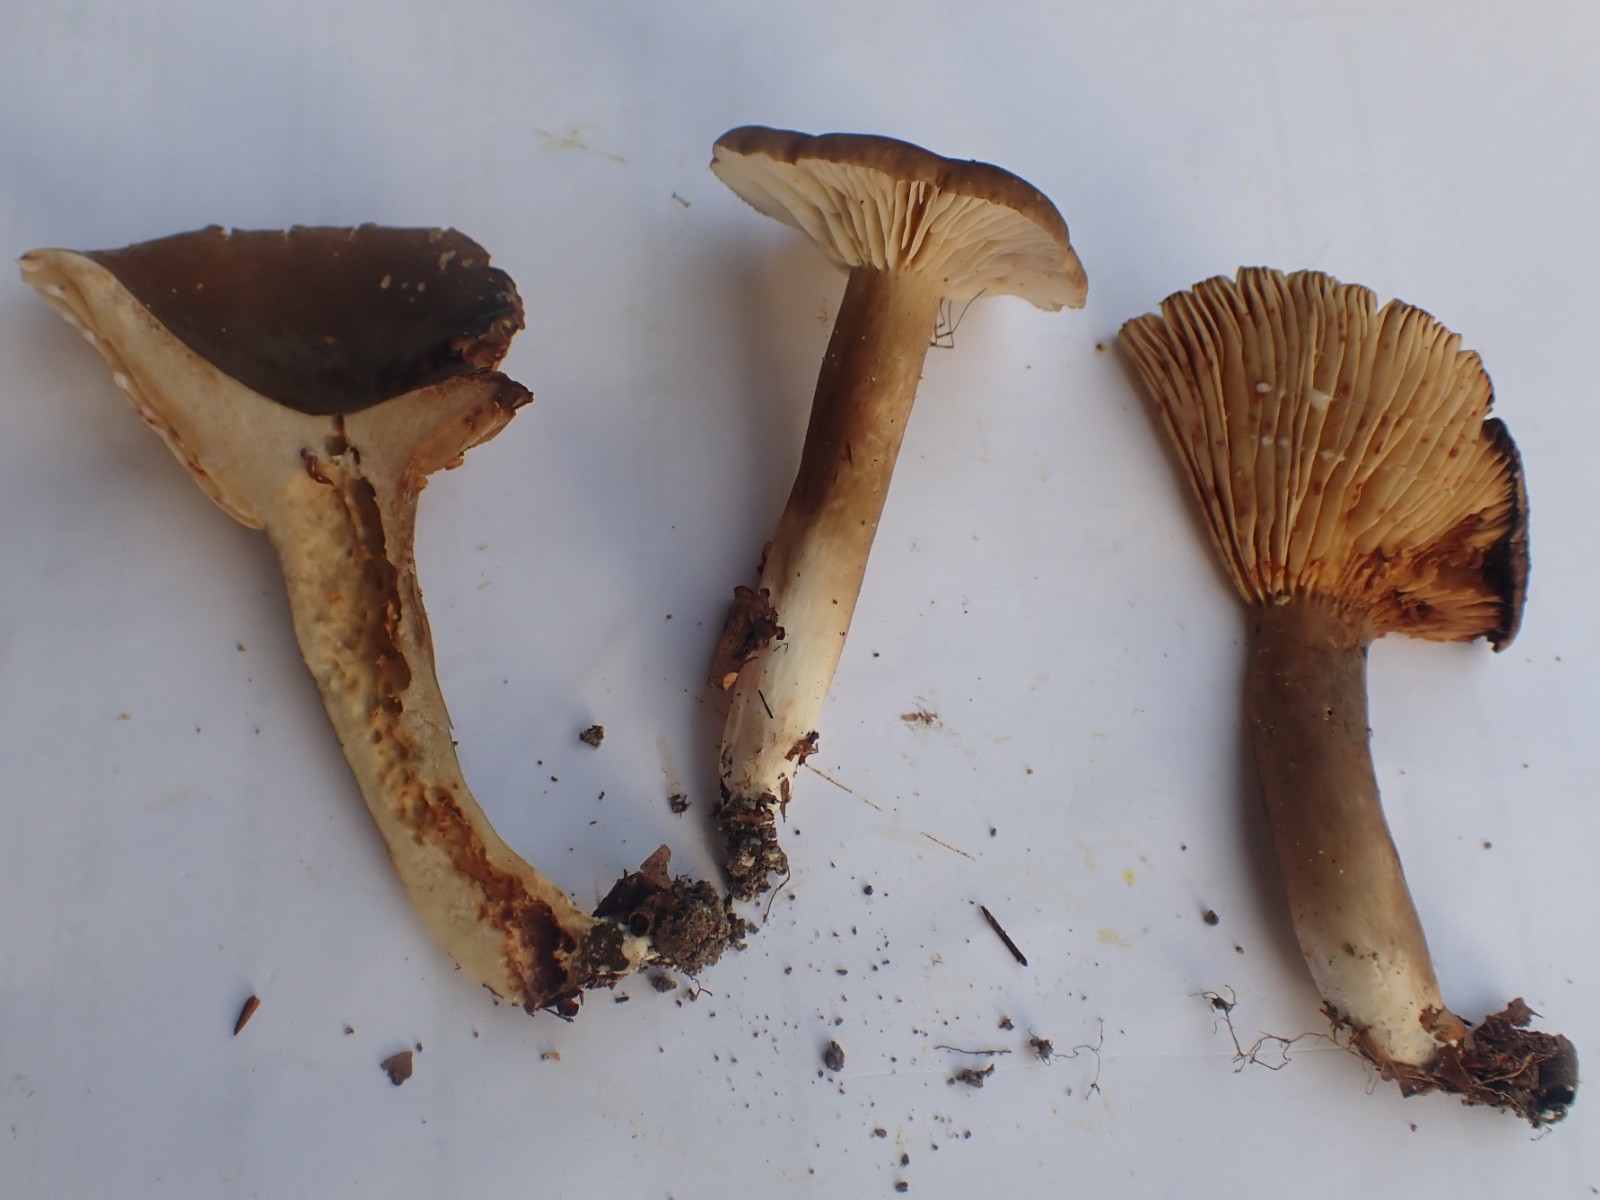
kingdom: Fungi
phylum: Basidiomycota
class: Agaricomycetes
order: Russulales
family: Russulaceae
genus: Lactarius
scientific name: Lactarius romagnesii
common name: fjernbladet mælkehat
